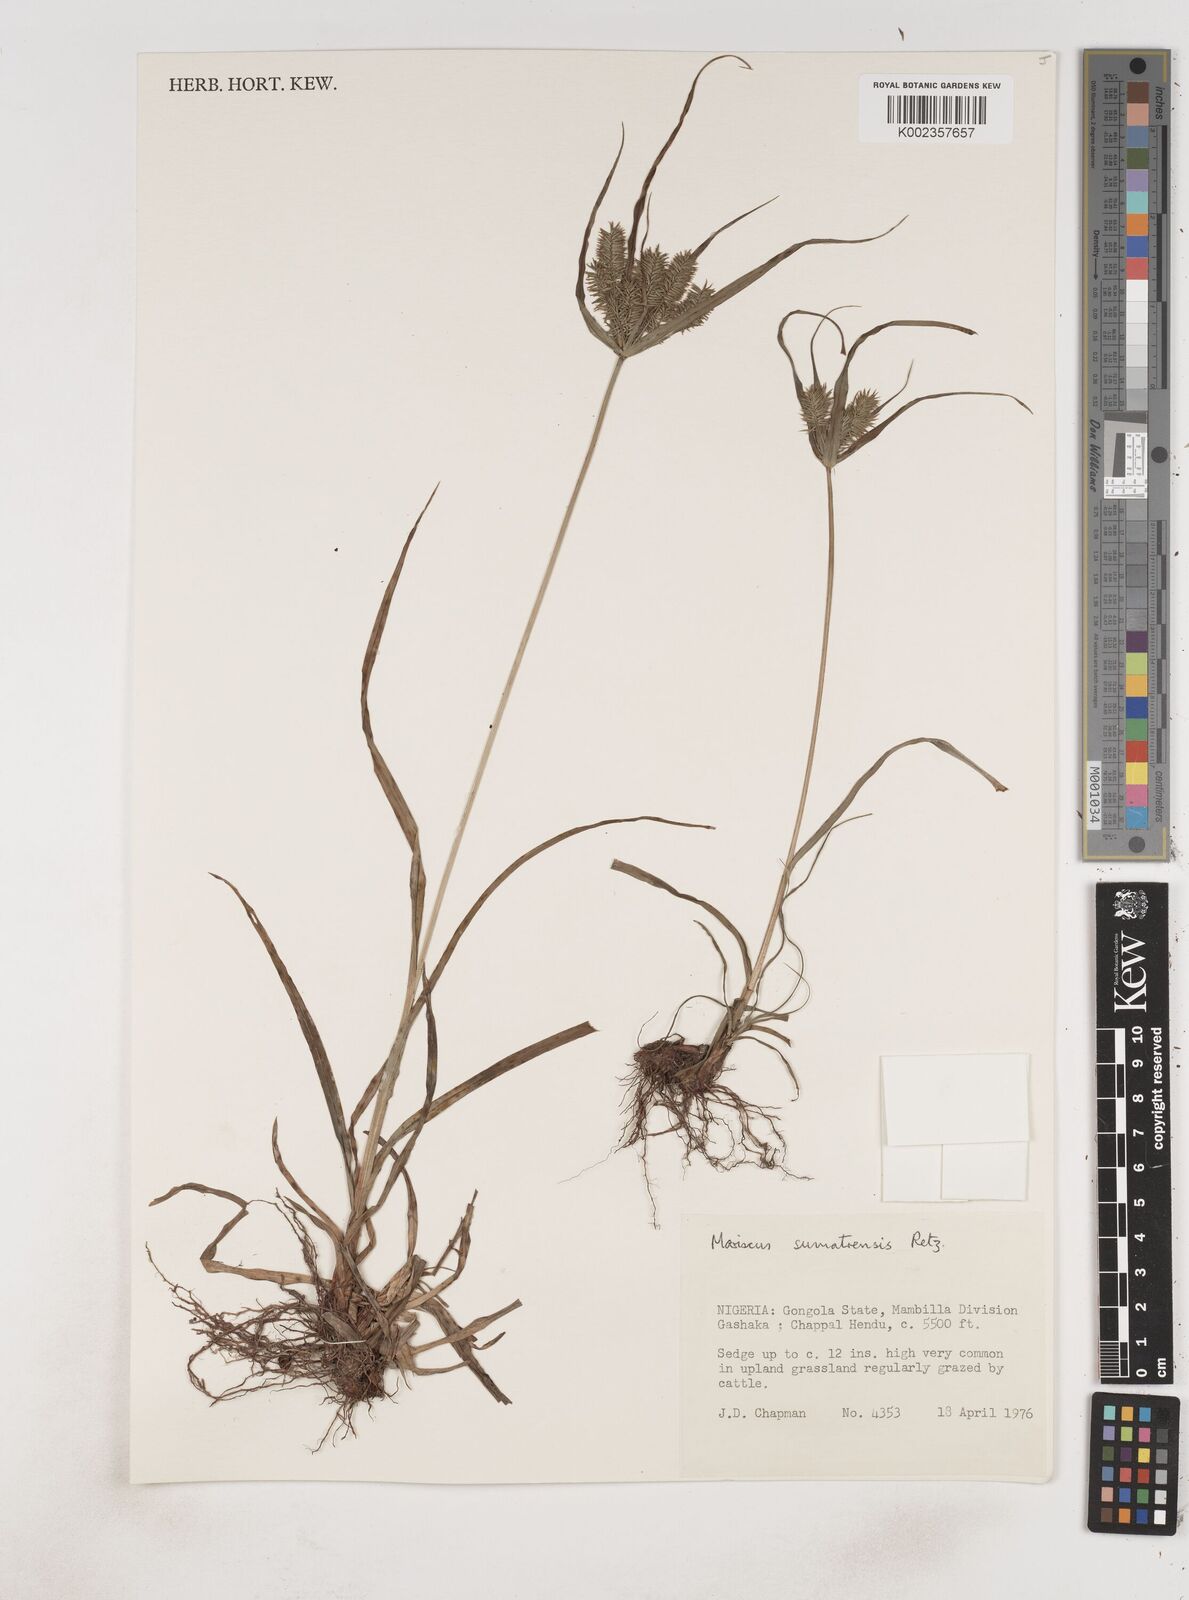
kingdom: Plantae
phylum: Tracheophyta
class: Liliopsida
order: Poales
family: Cyperaceae
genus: Cyperus
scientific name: Cyperus cyperoides
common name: Pacific island flat sedge
